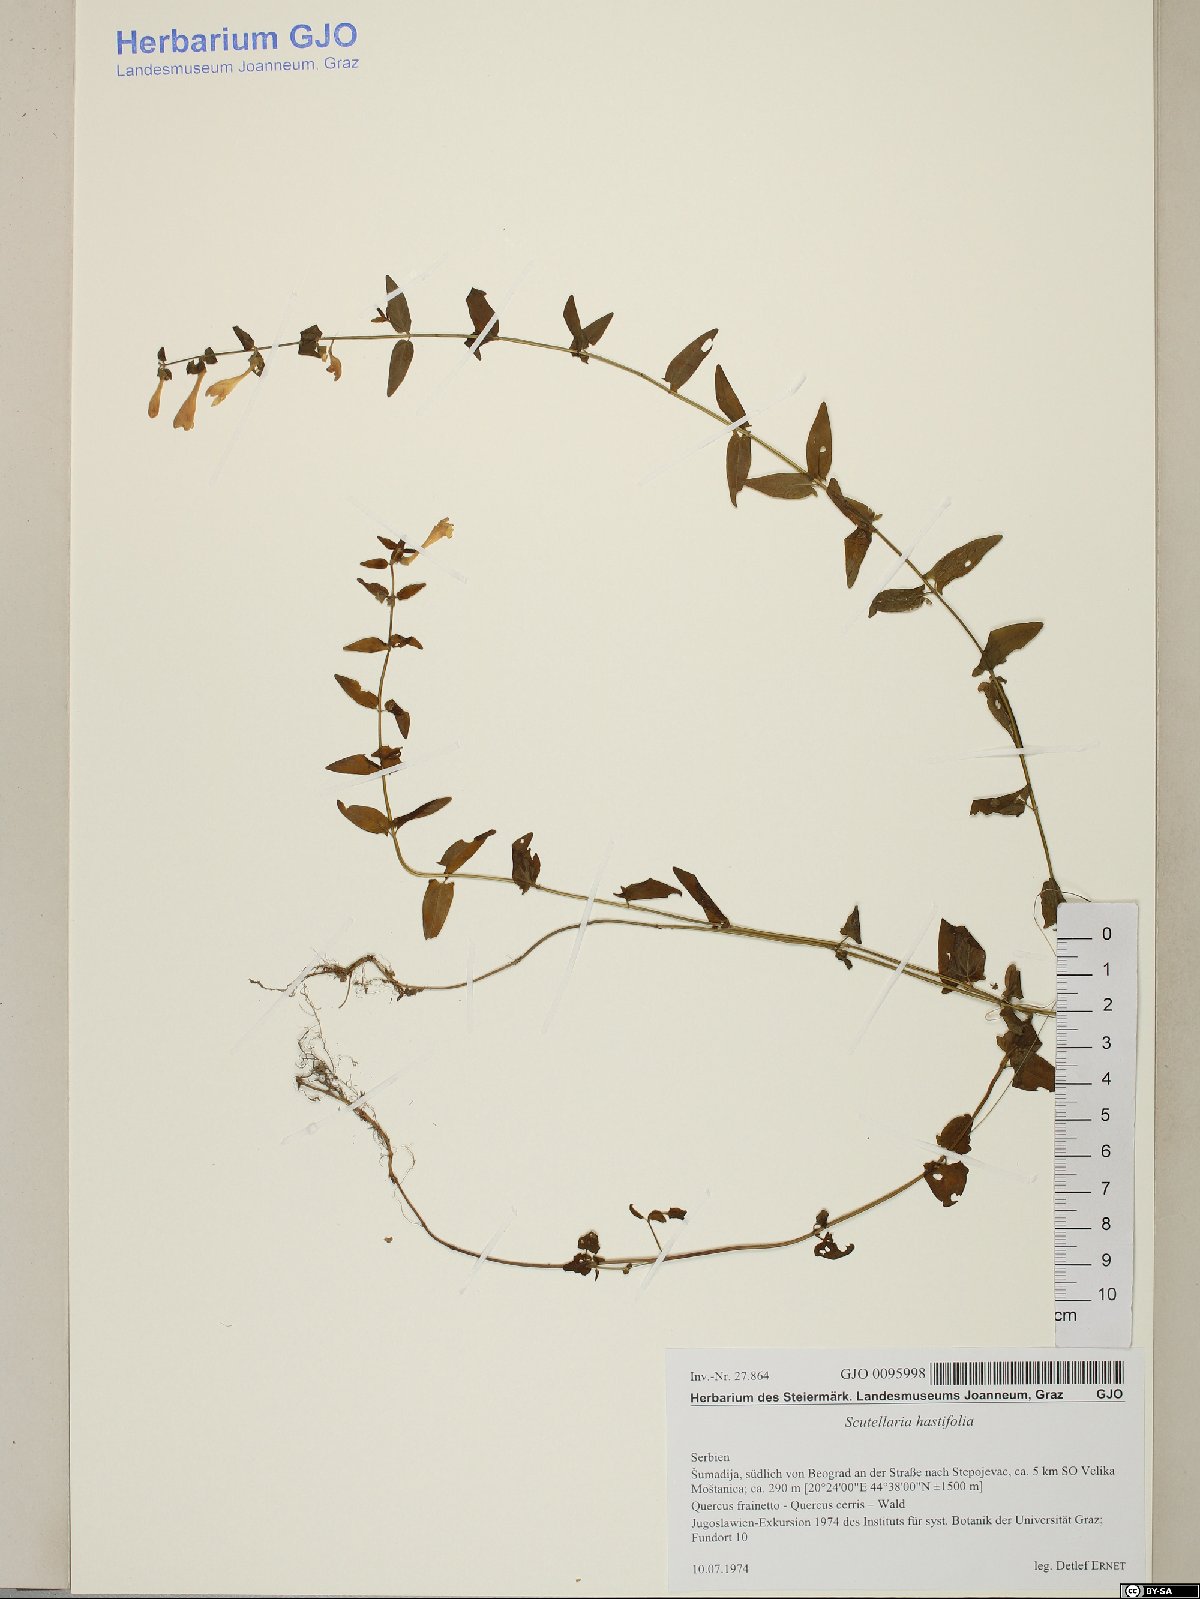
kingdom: Plantae
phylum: Tracheophyta
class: Magnoliopsida
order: Lamiales
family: Lamiaceae
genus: Scutellaria
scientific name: Scutellaria hastifolia
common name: Norfolk skullcap
